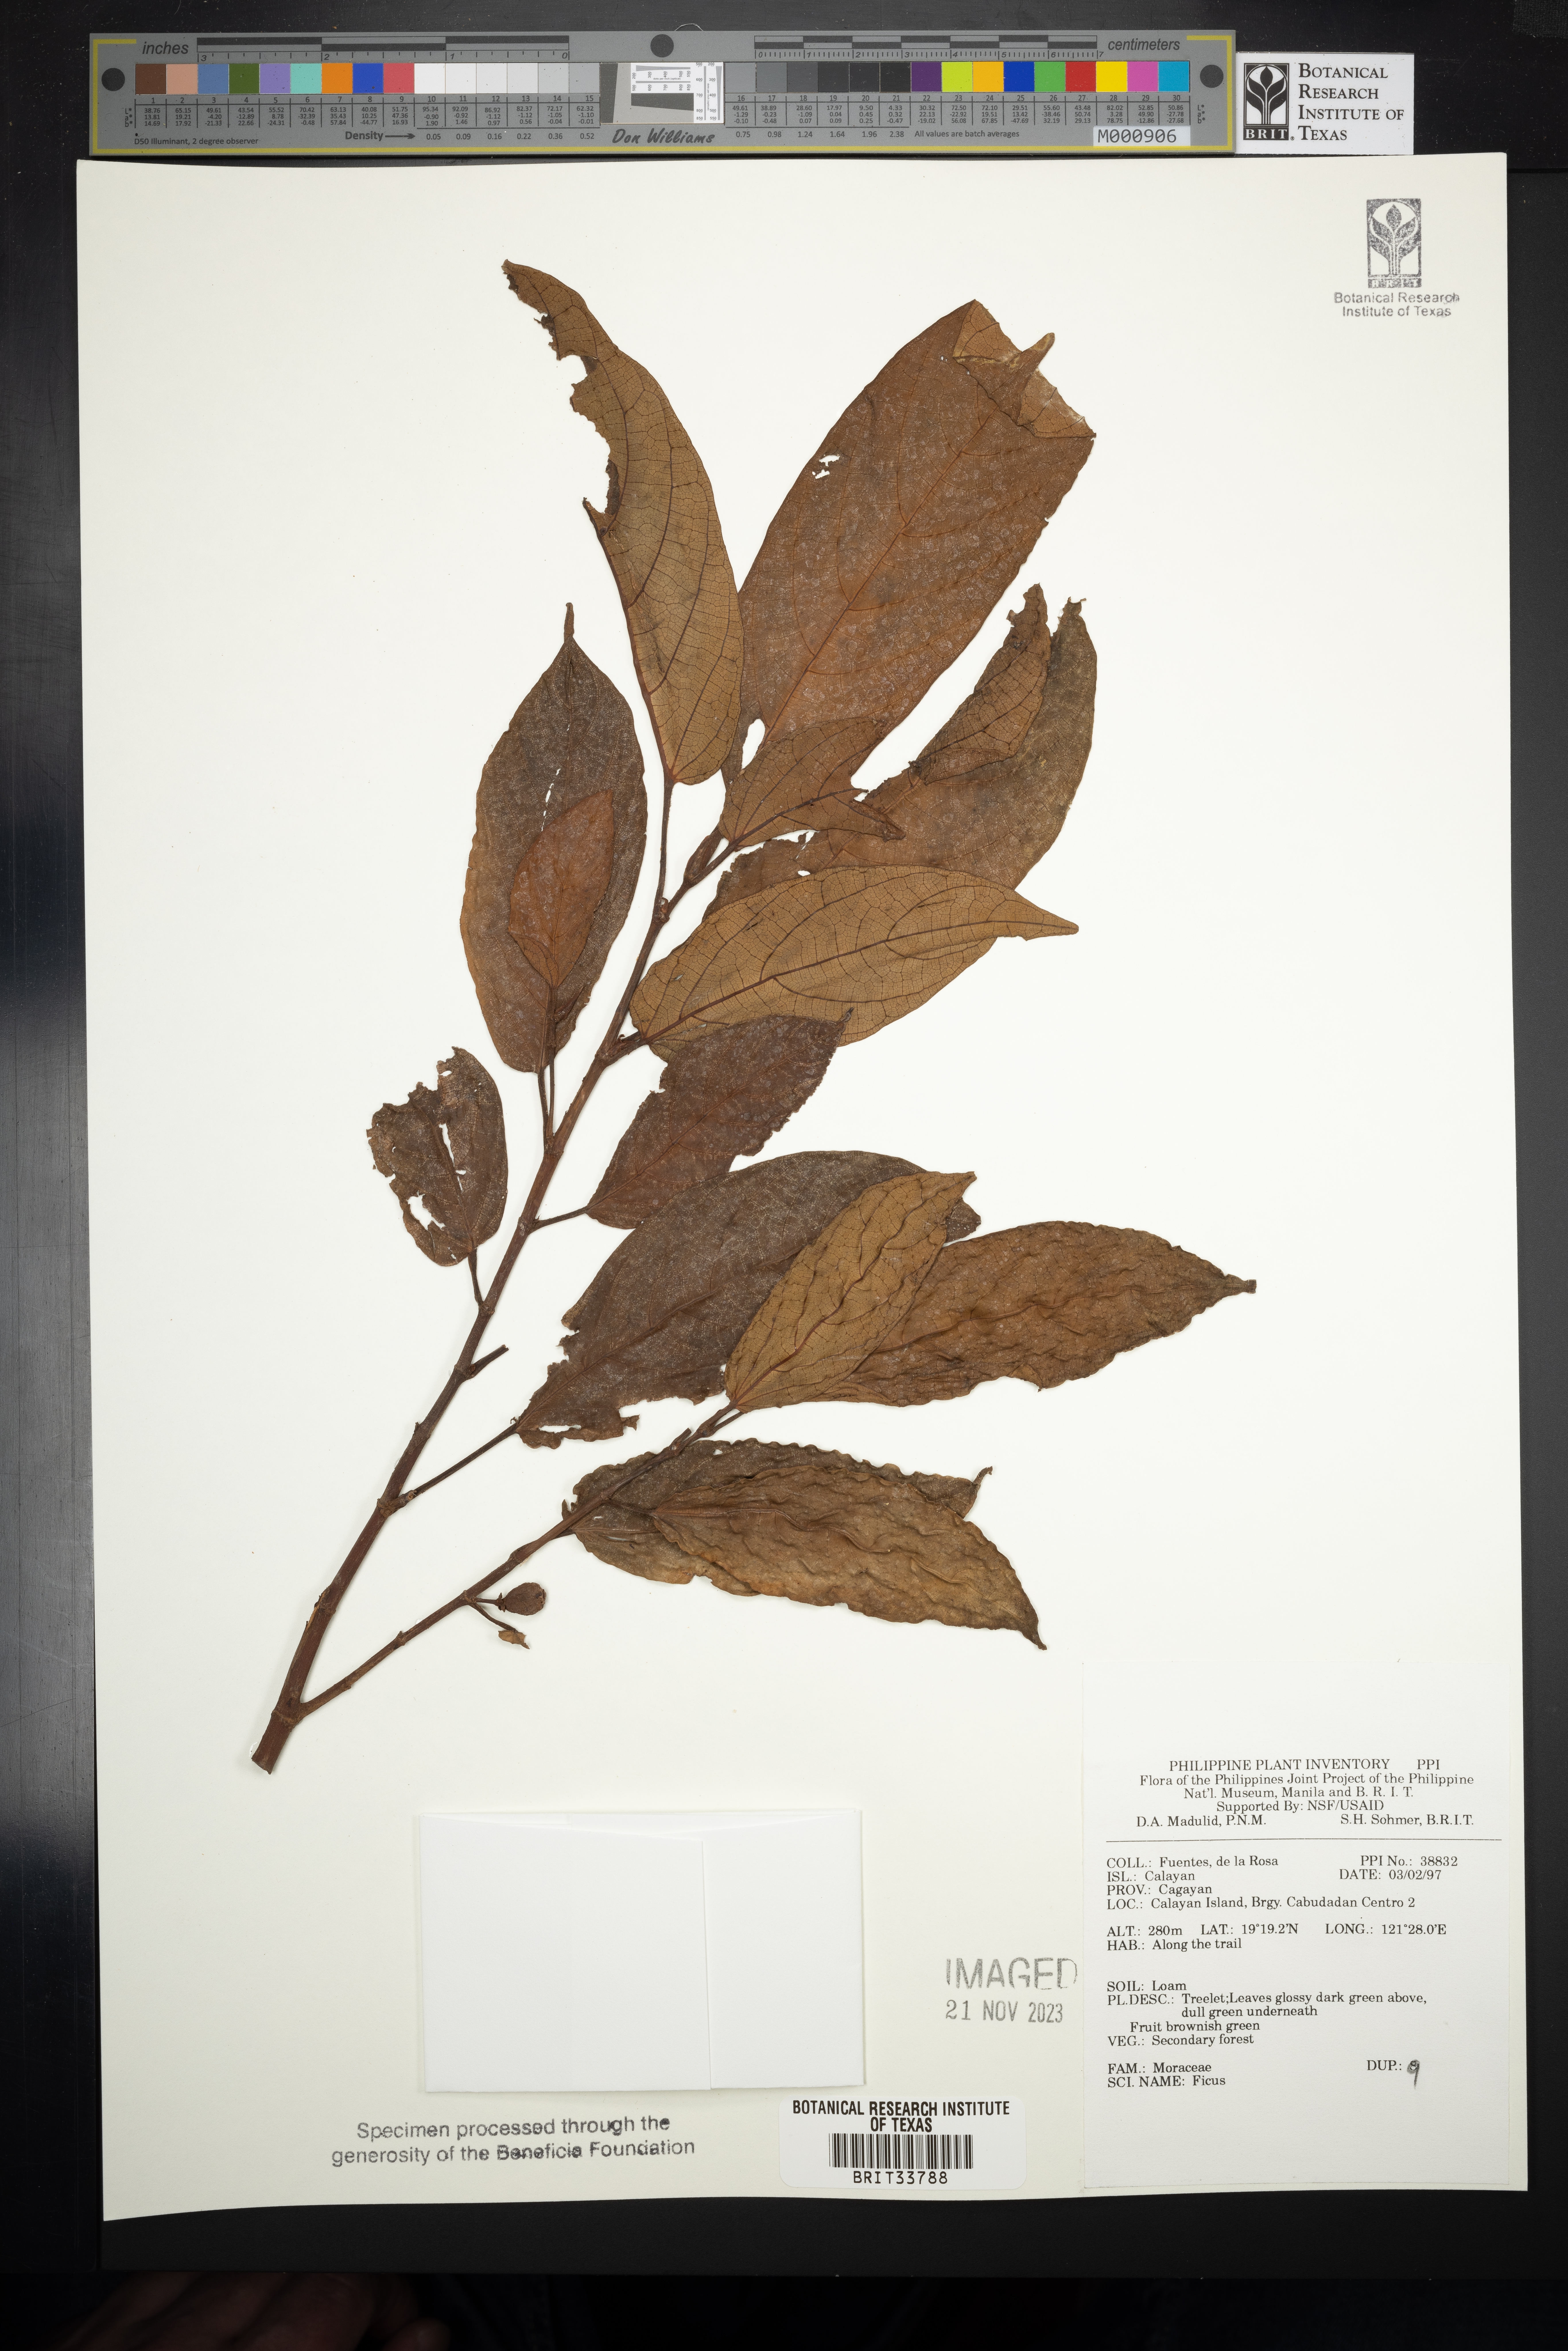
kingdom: Plantae
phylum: Tracheophyta
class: Magnoliopsida
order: Rosales
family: Moraceae
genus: Ficus
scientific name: Ficus
